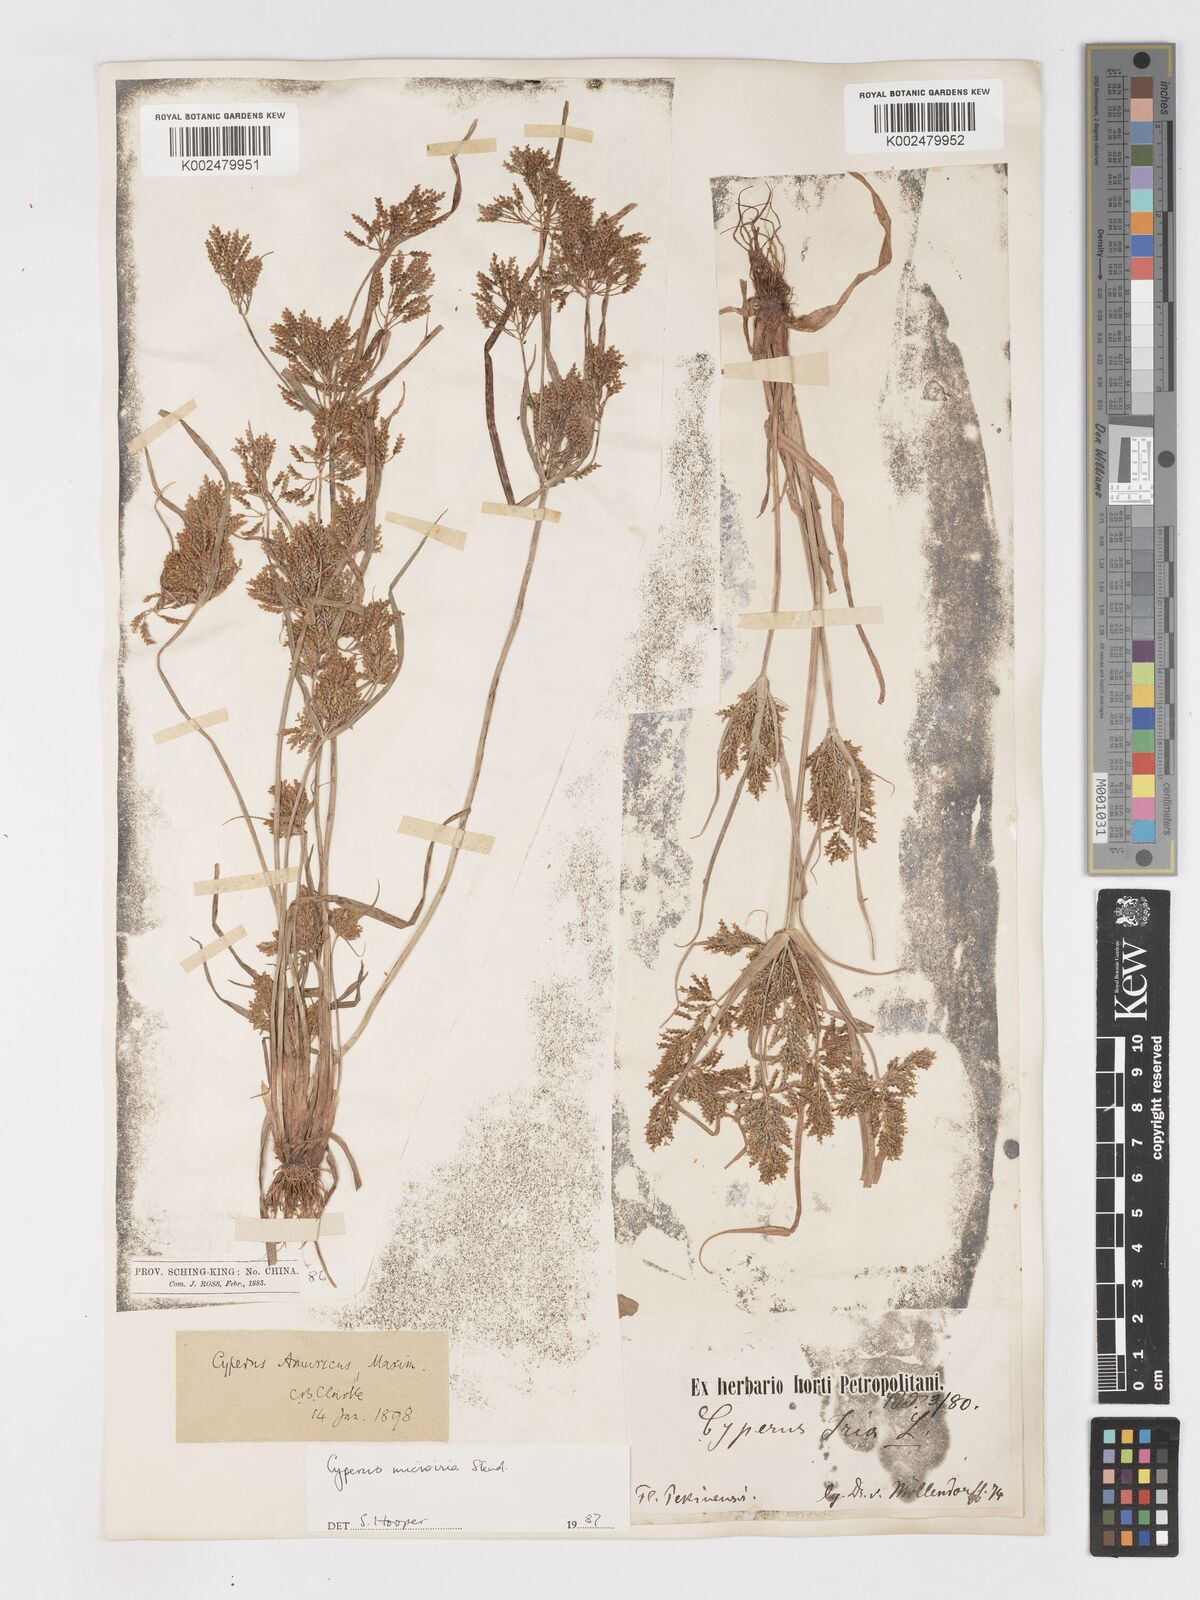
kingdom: Plantae
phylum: Tracheophyta
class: Liliopsida
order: Poales
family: Cyperaceae
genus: Cyperus
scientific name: Cyperus microiria
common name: Asian flatsedge
